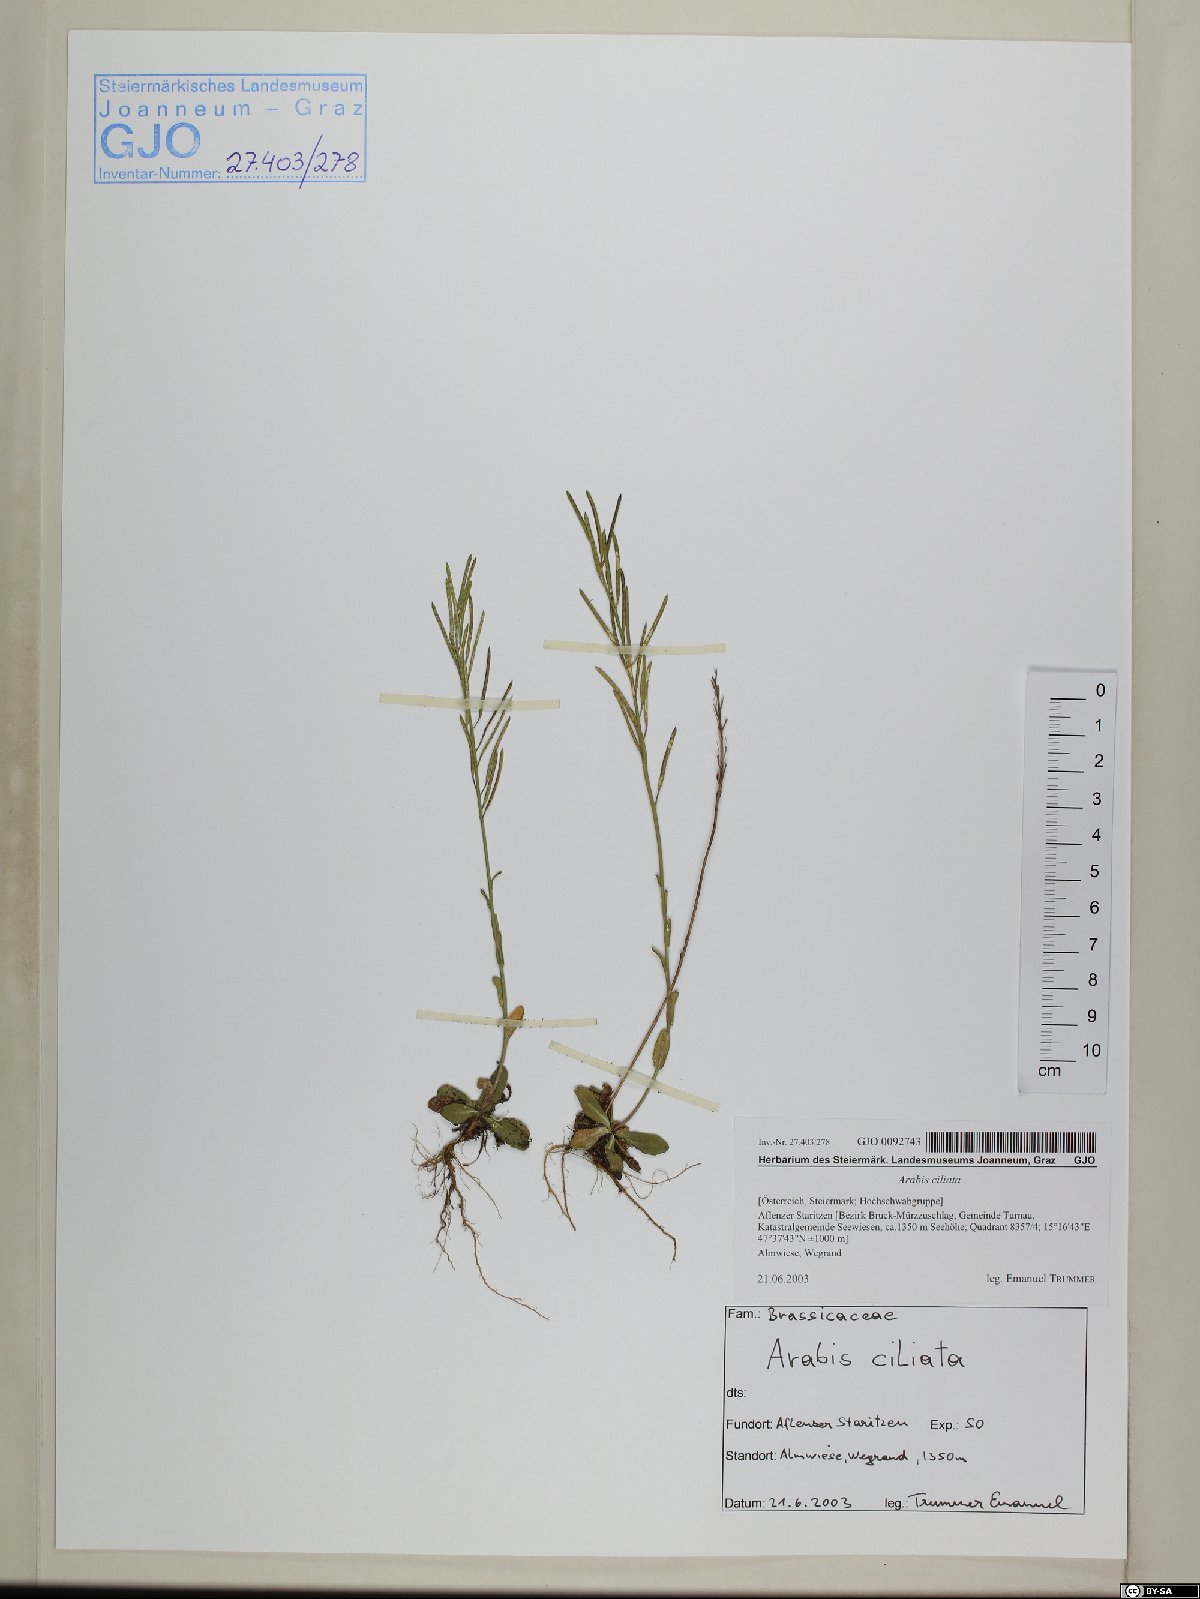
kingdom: Plantae
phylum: Tracheophyta
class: Magnoliopsida
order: Brassicales
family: Brassicaceae
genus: Arabis
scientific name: Arabis ciliata
